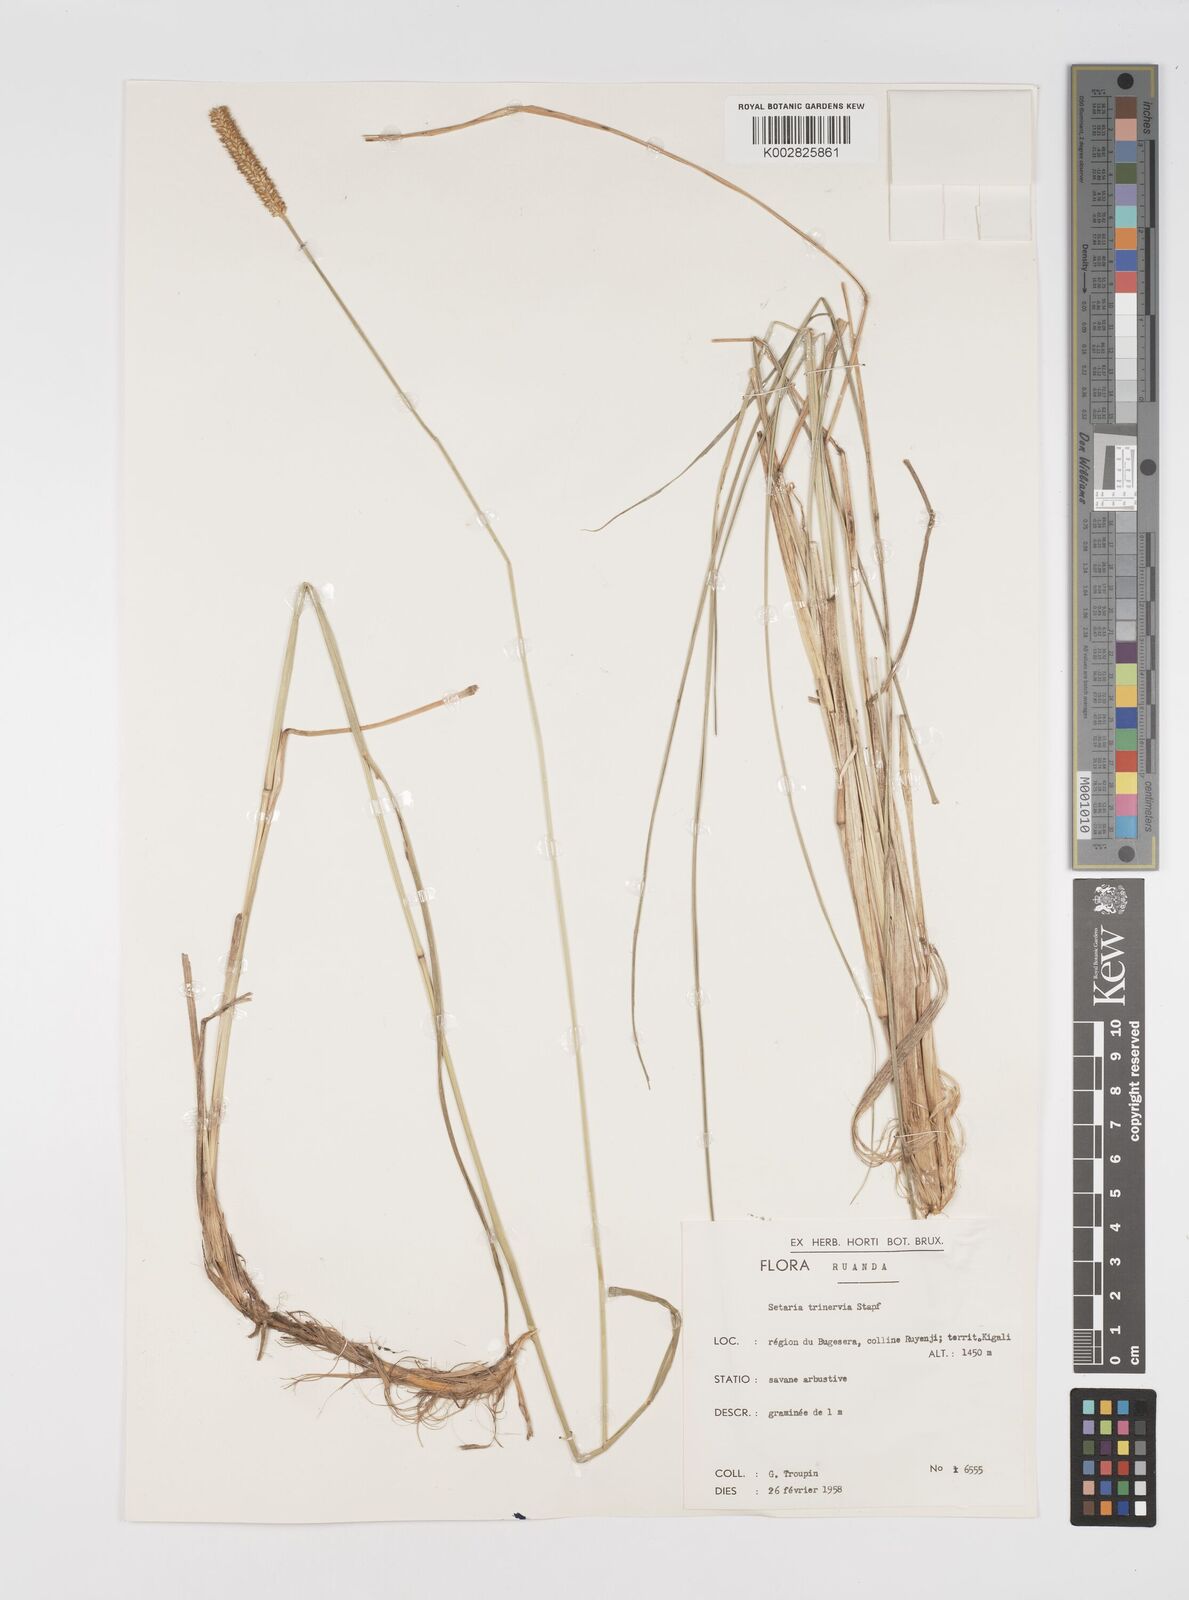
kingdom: Plantae
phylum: Tracheophyta
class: Liliopsida
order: Poales
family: Poaceae
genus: Setaria
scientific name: Setaria sphacelata
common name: African bristlegrass
